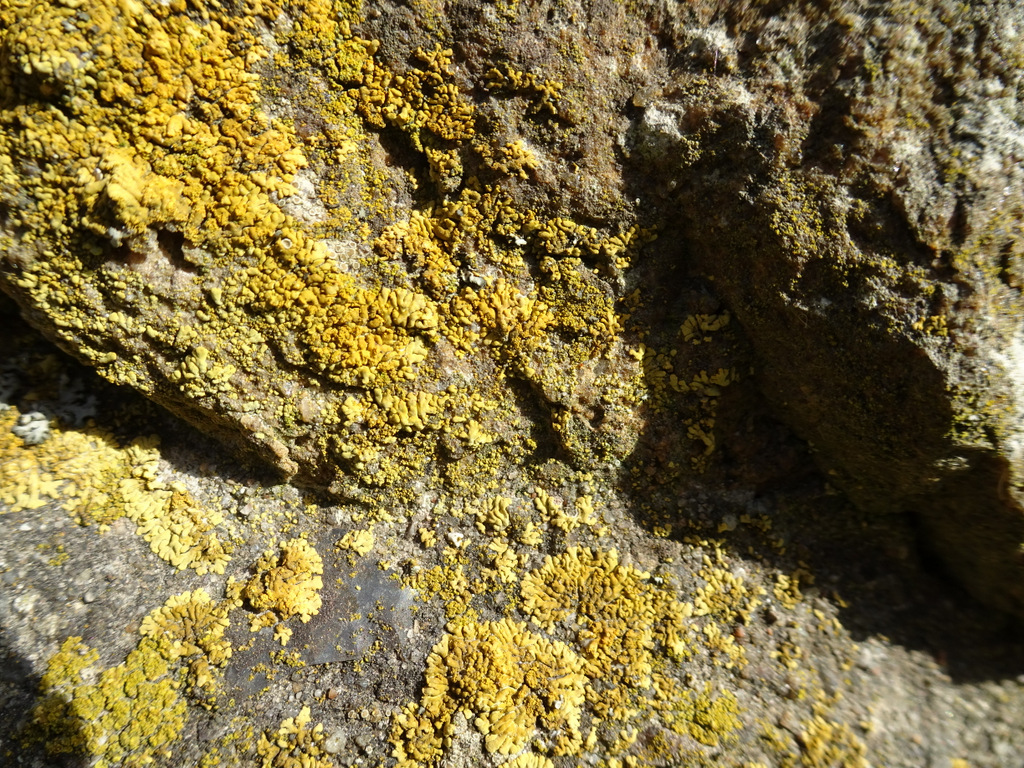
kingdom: Fungi
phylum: Ascomycota
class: Lecanoromycetes
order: Teloschistales
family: Teloschistaceae
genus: Calogaya
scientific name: Calogaya decipiens
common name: knudret orangelav
